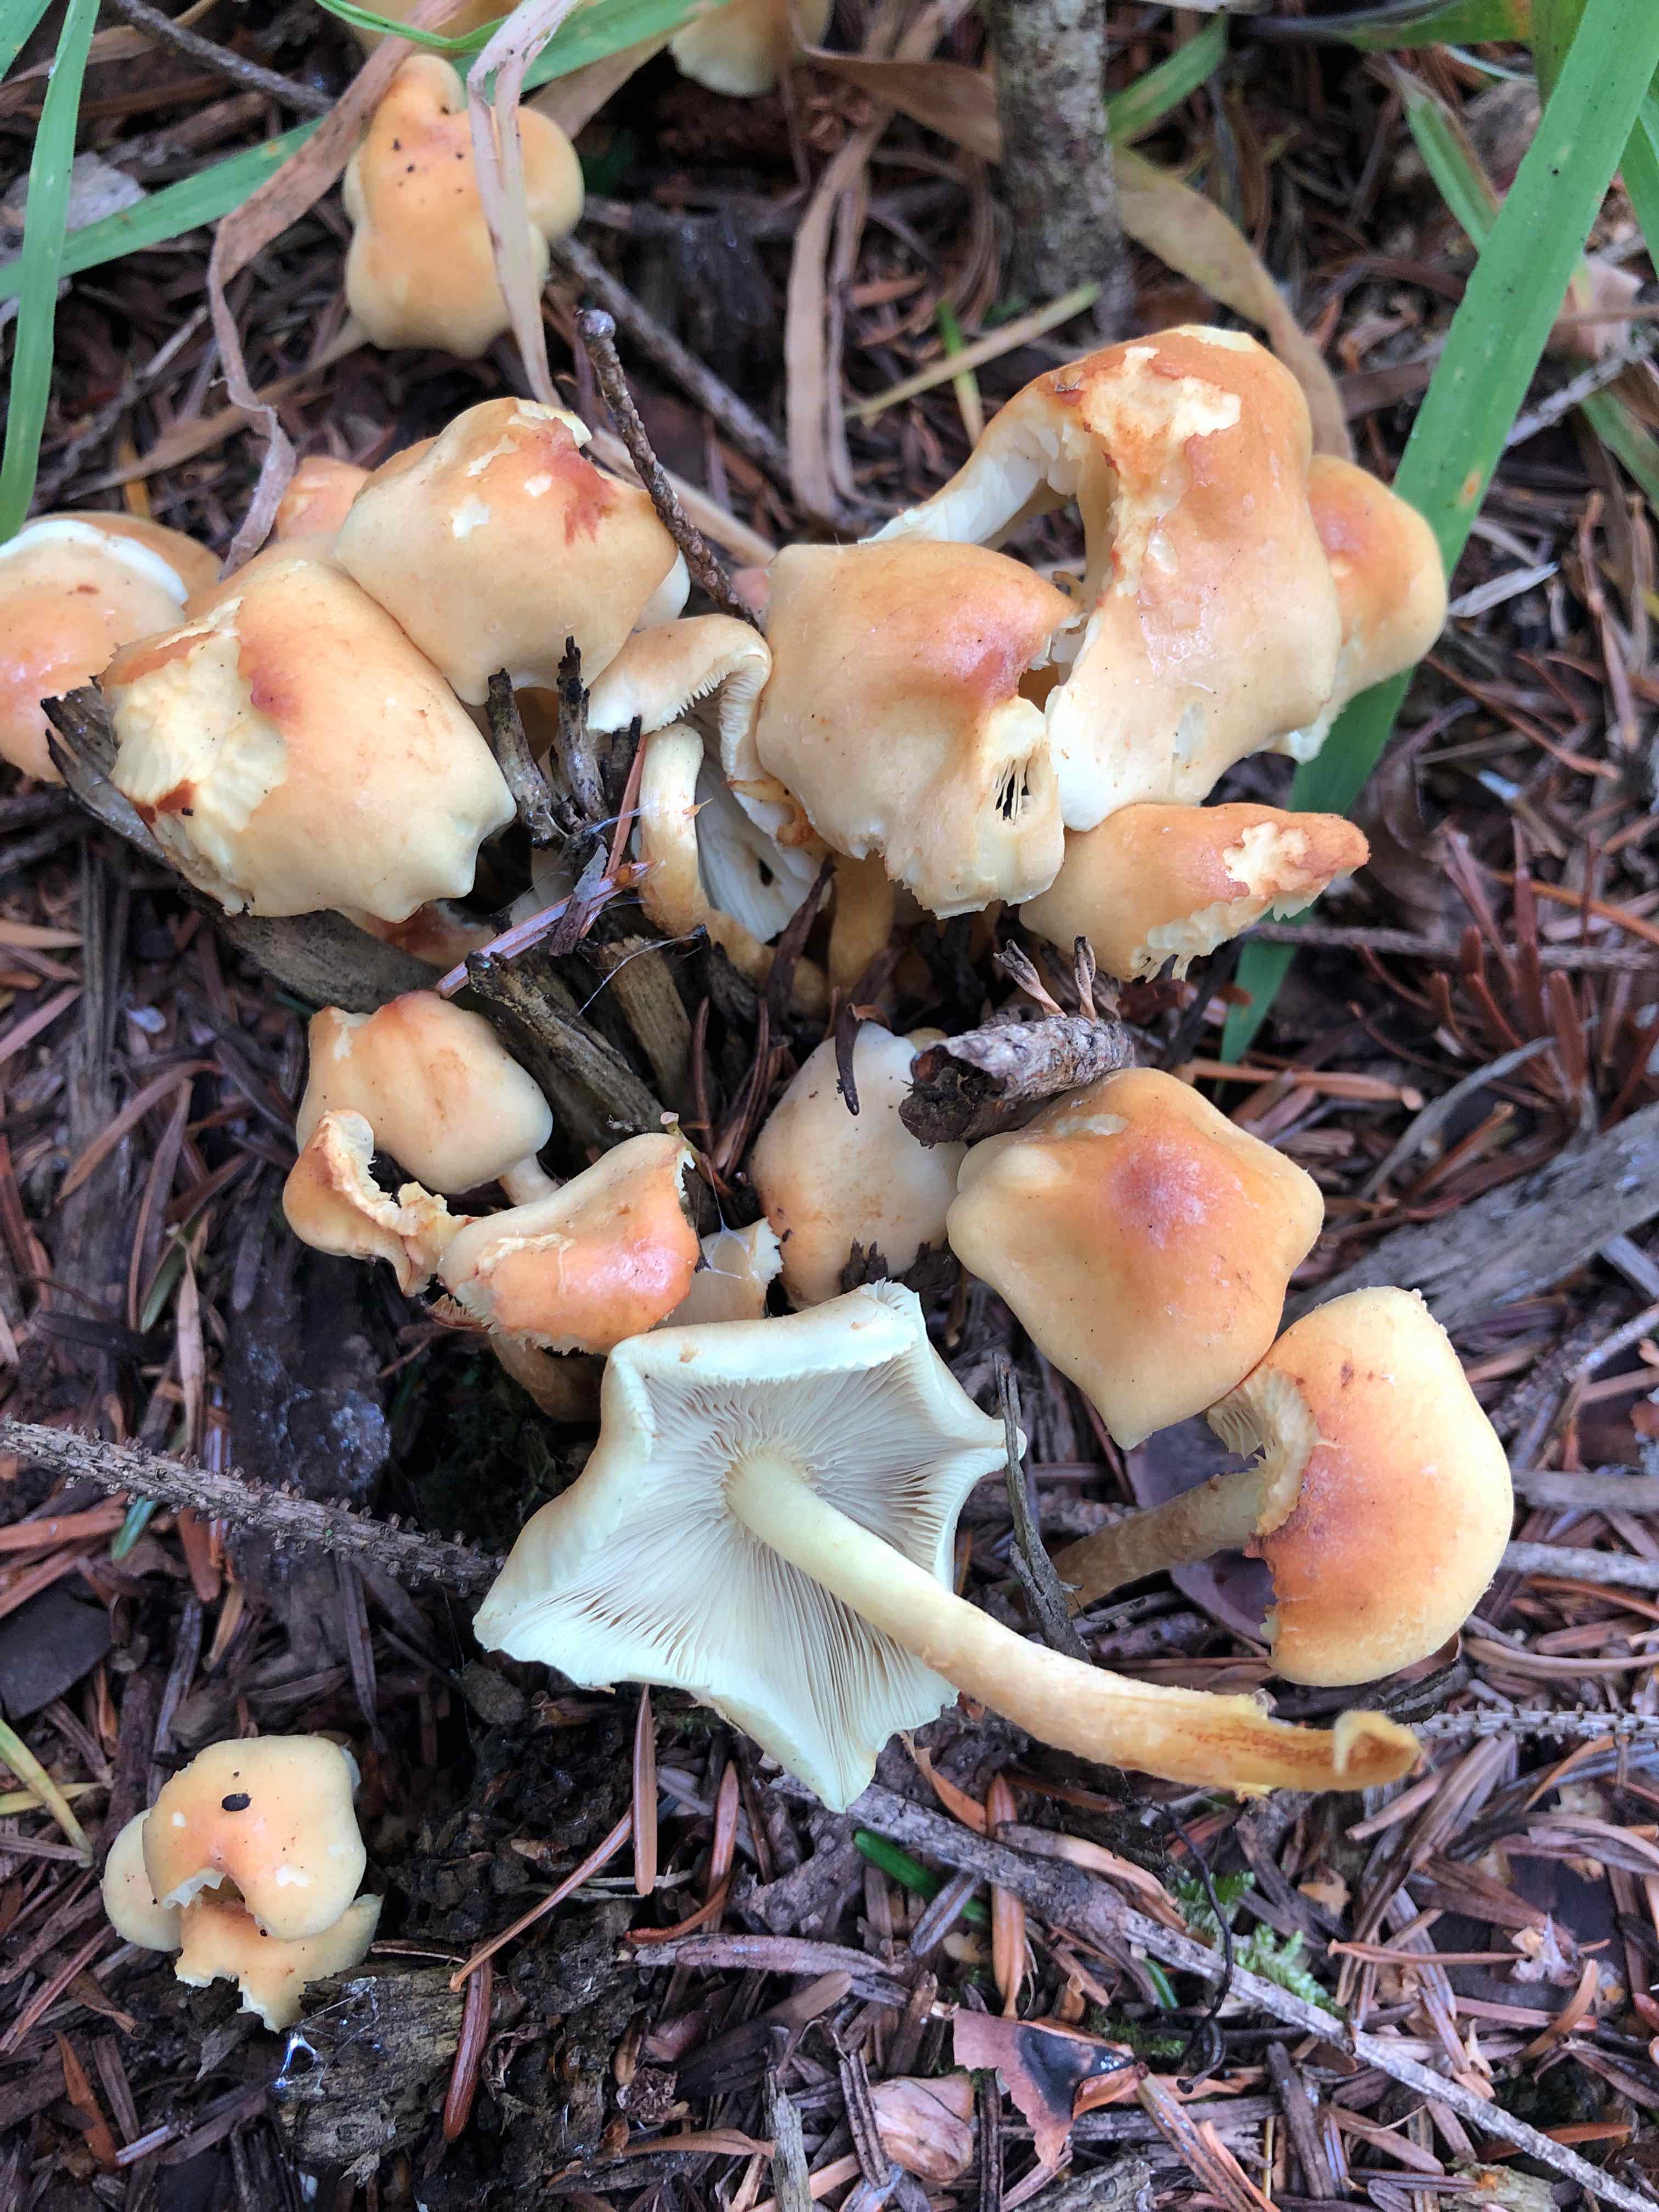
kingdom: Fungi
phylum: Basidiomycota
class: Agaricomycetes
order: Agaricales
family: Strophariaceae
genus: Hypholoma
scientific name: Hypholoma fasciculare
